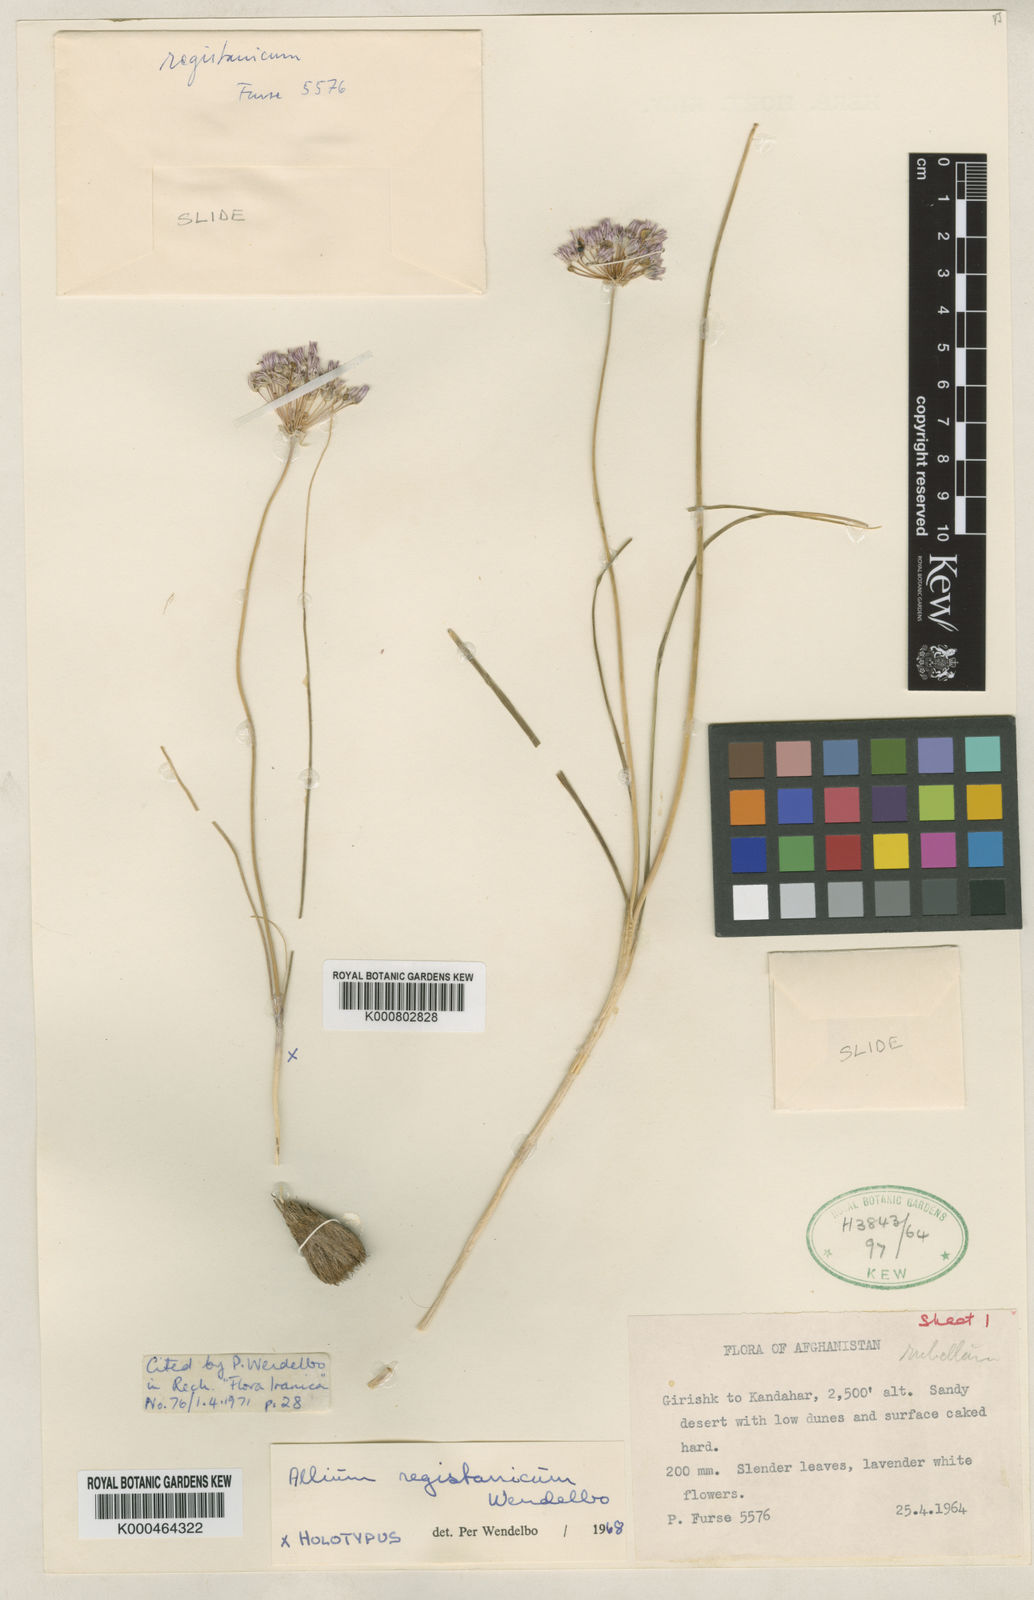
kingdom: Plantae
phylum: Tracheophyta
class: Liliopsida
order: Asparagales
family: Amaryllidaceae
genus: Allium
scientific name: Allium registanicum
